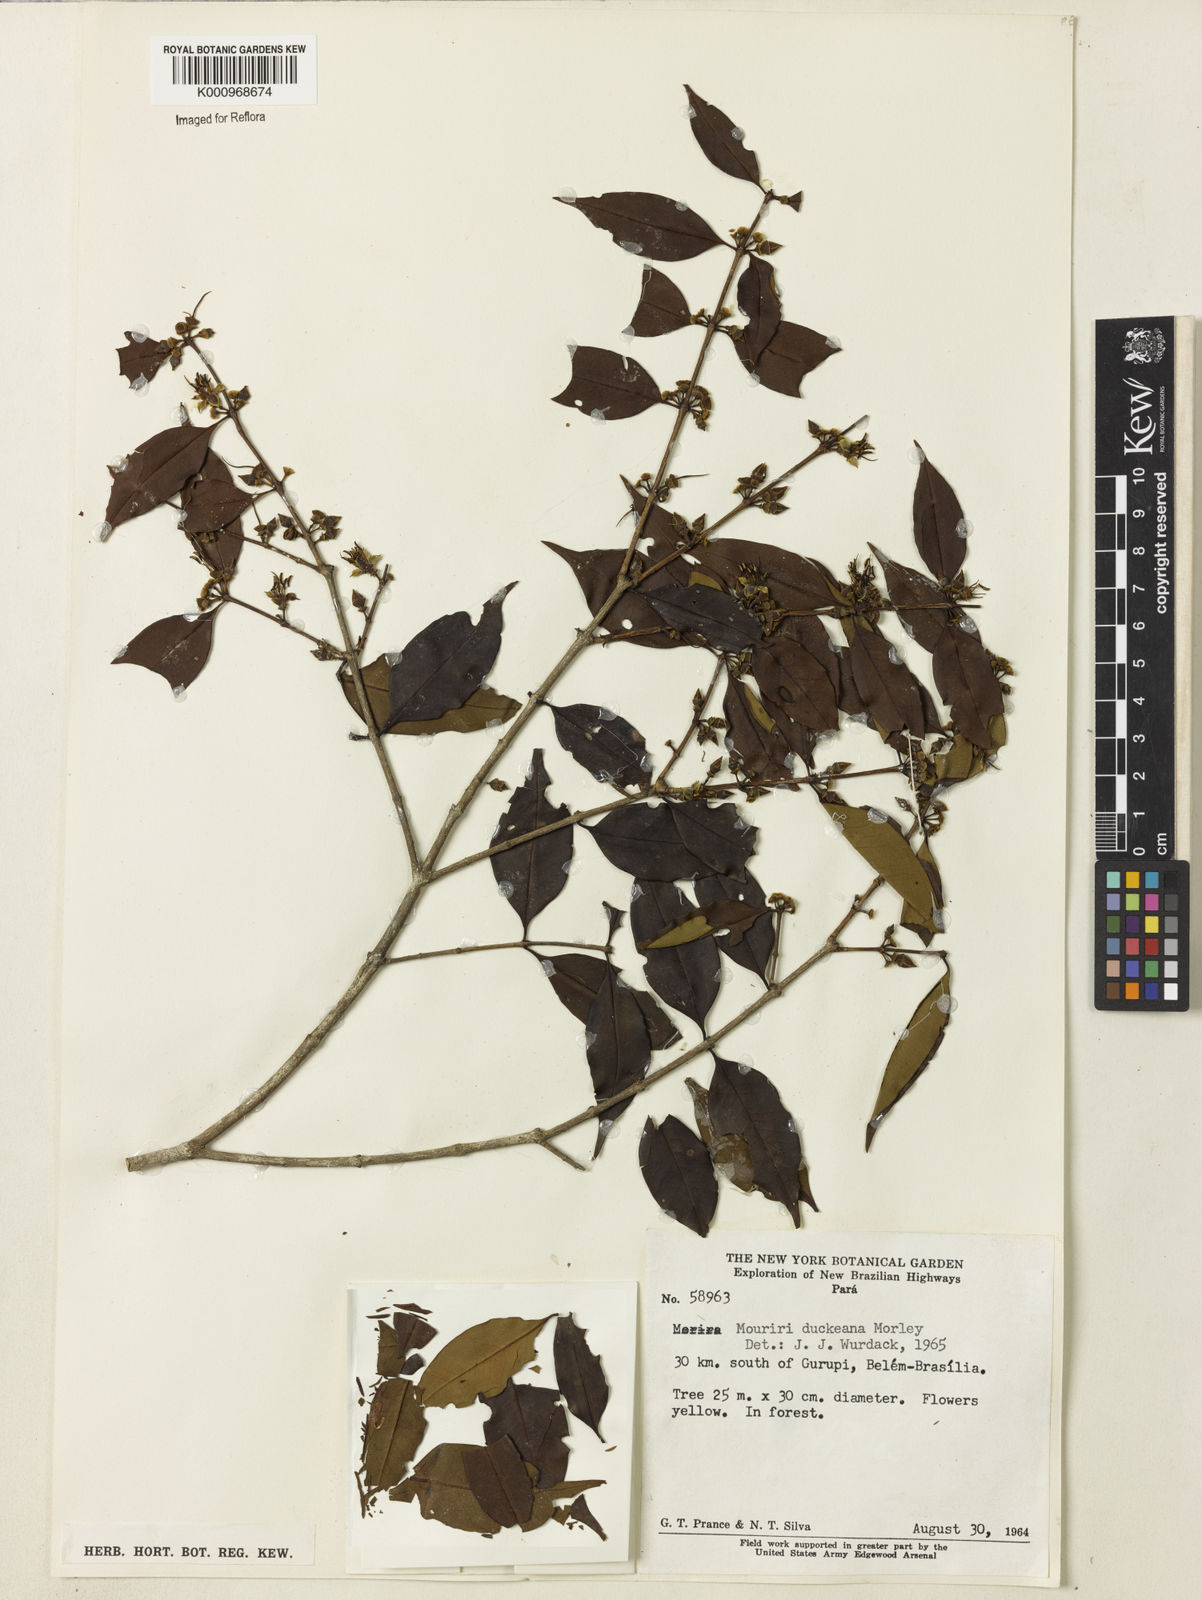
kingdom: Plantae
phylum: Tracheophyta
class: Magnoliopsida
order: Myrtales
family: Melastomataceae
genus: Mouriri
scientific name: Mouriri duckeana
